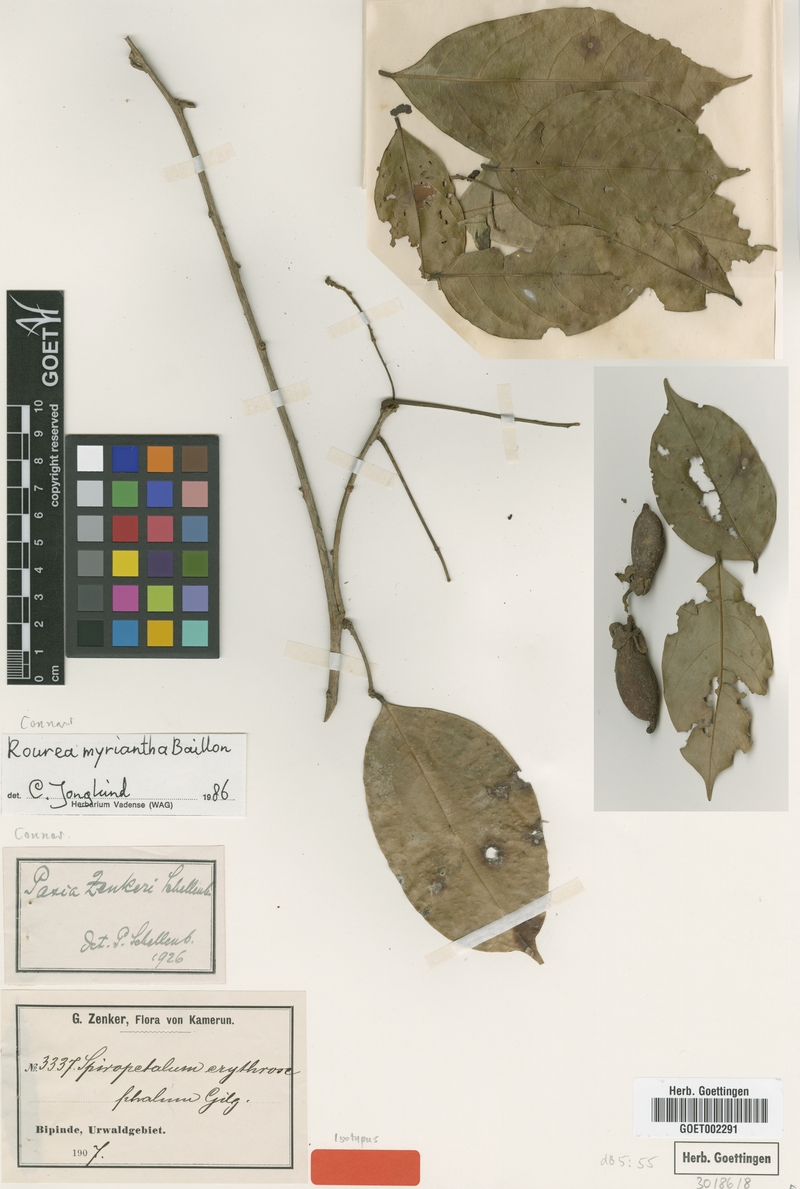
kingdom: Plantae
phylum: Tracheophyta
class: Magnoliopsida
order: Oxalidales
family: Connaraceae
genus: Rourea
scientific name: Rourea myriantha
